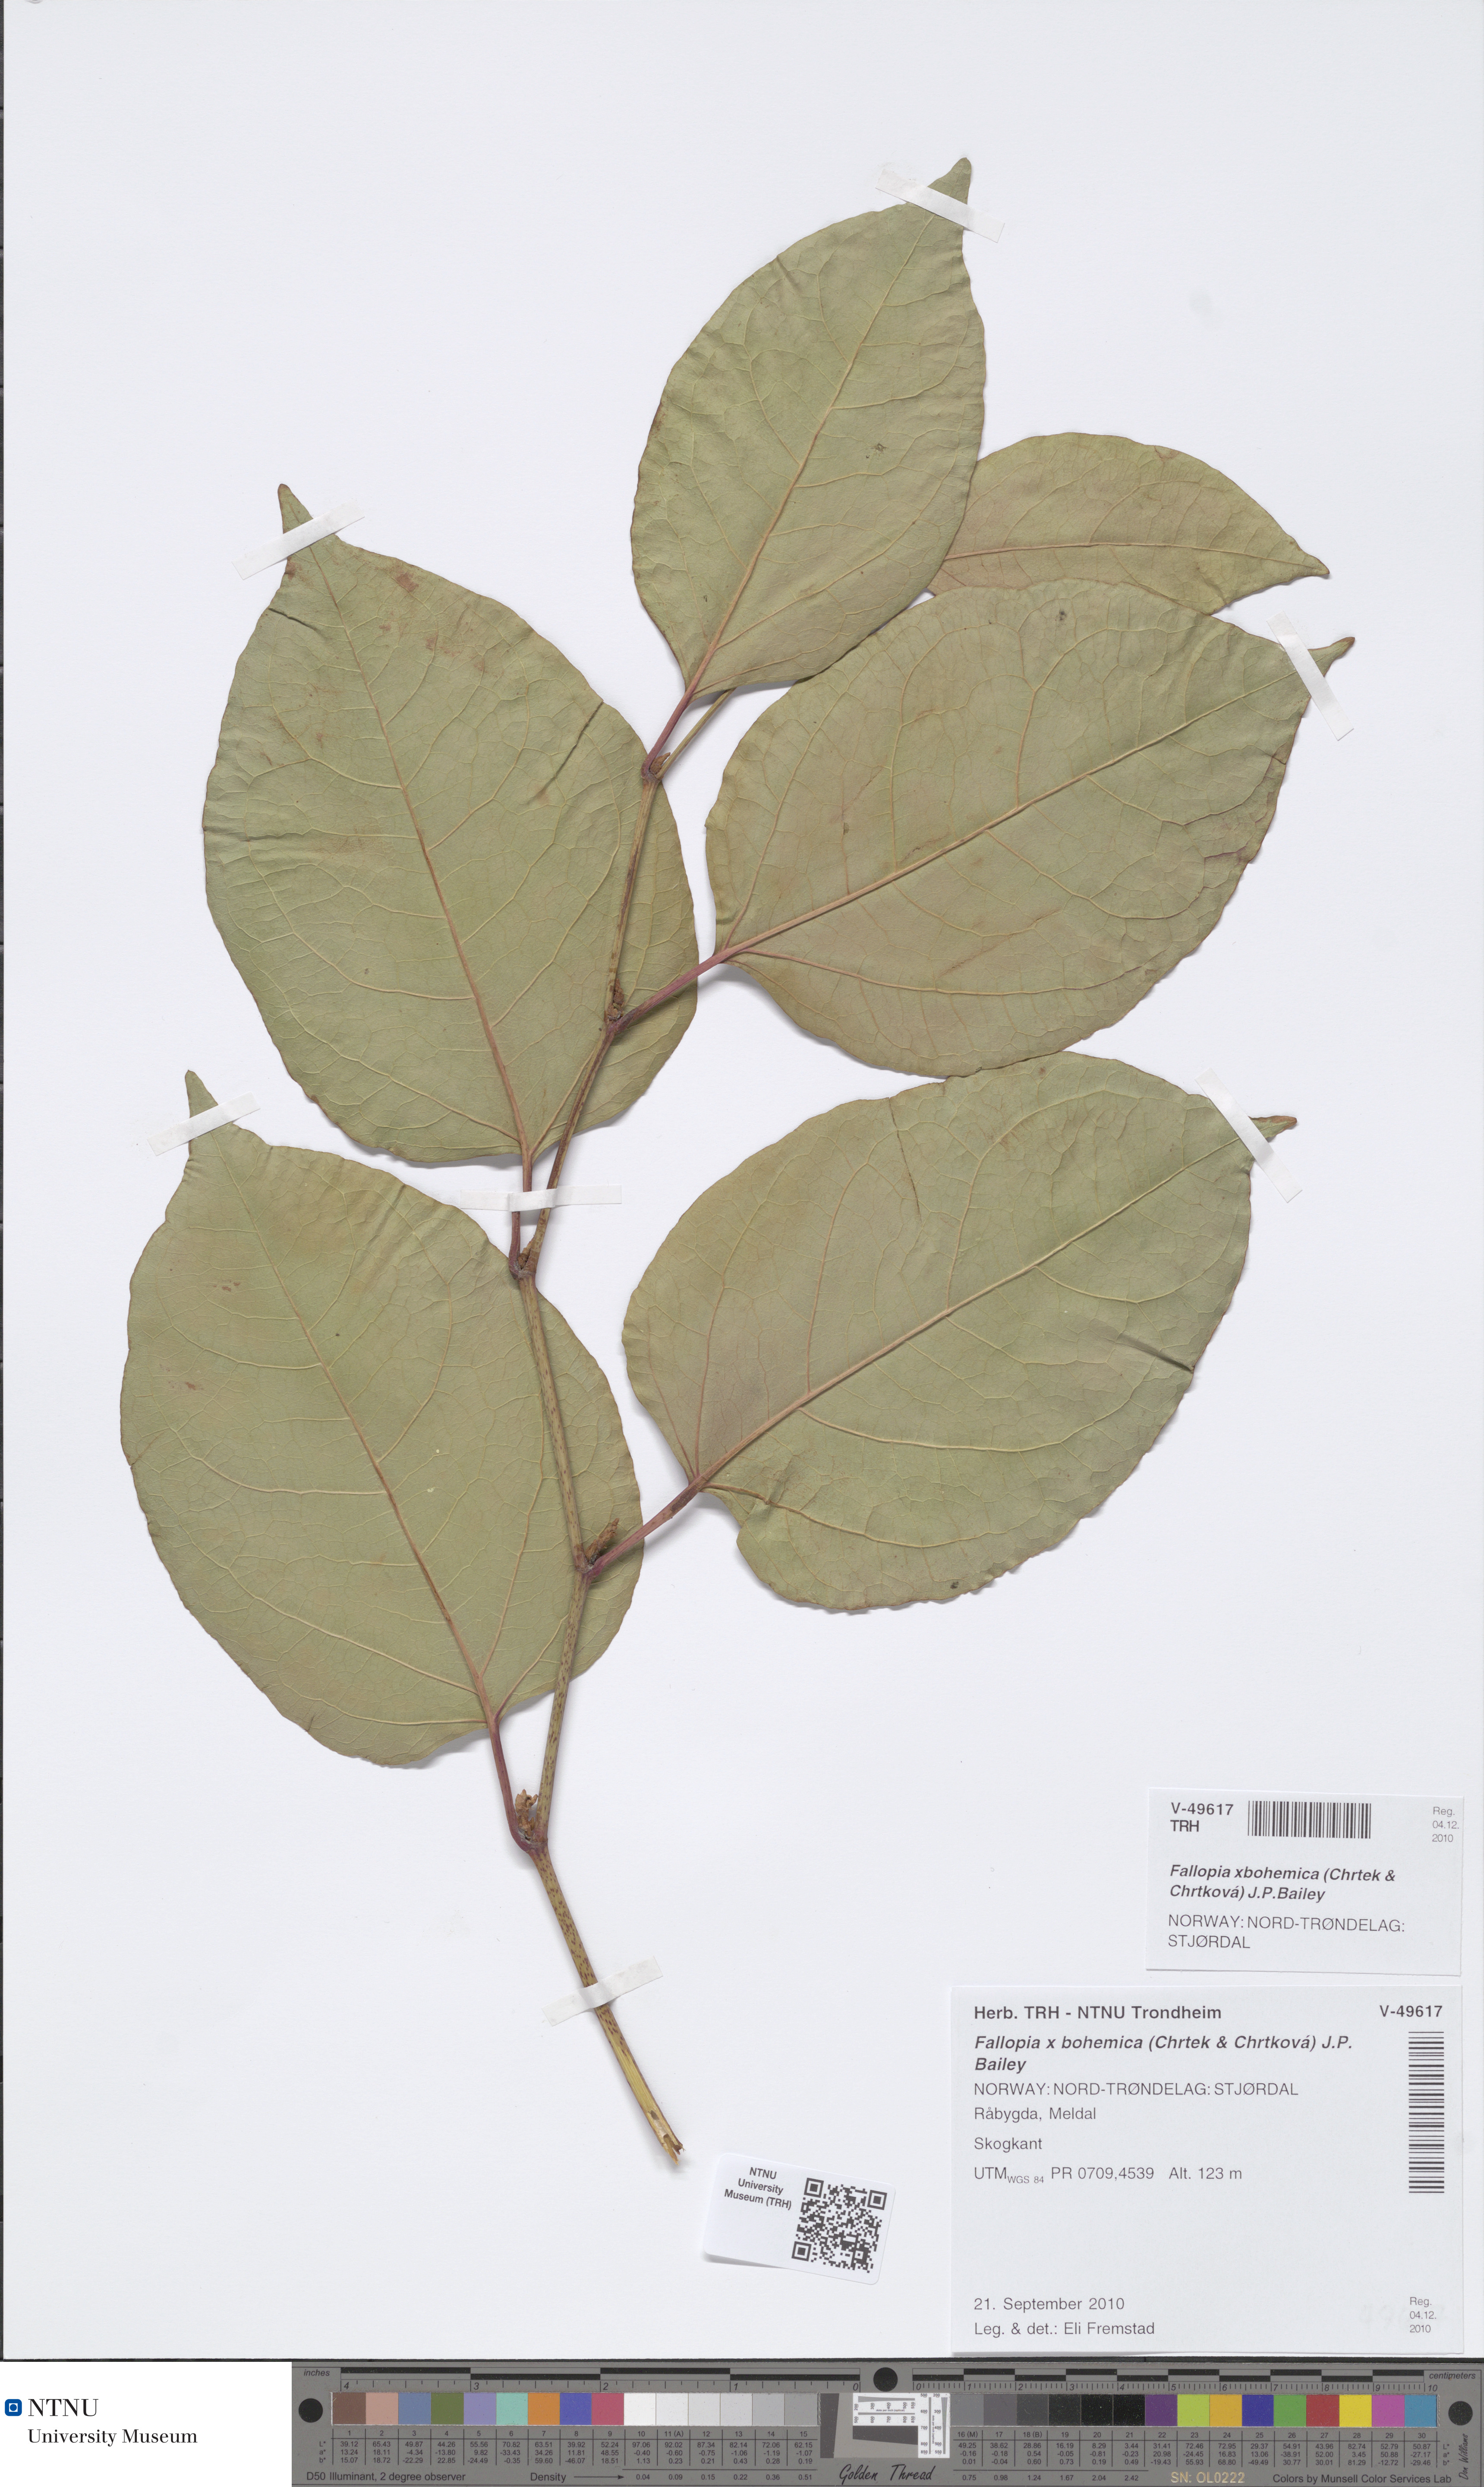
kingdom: Plantae
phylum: Tracheophyta
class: Magnoliopsida
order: Caryophyllales
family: Polygonaceae
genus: Reynoutria
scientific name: Reynoutria bohemica
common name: Bohemian knotweed
